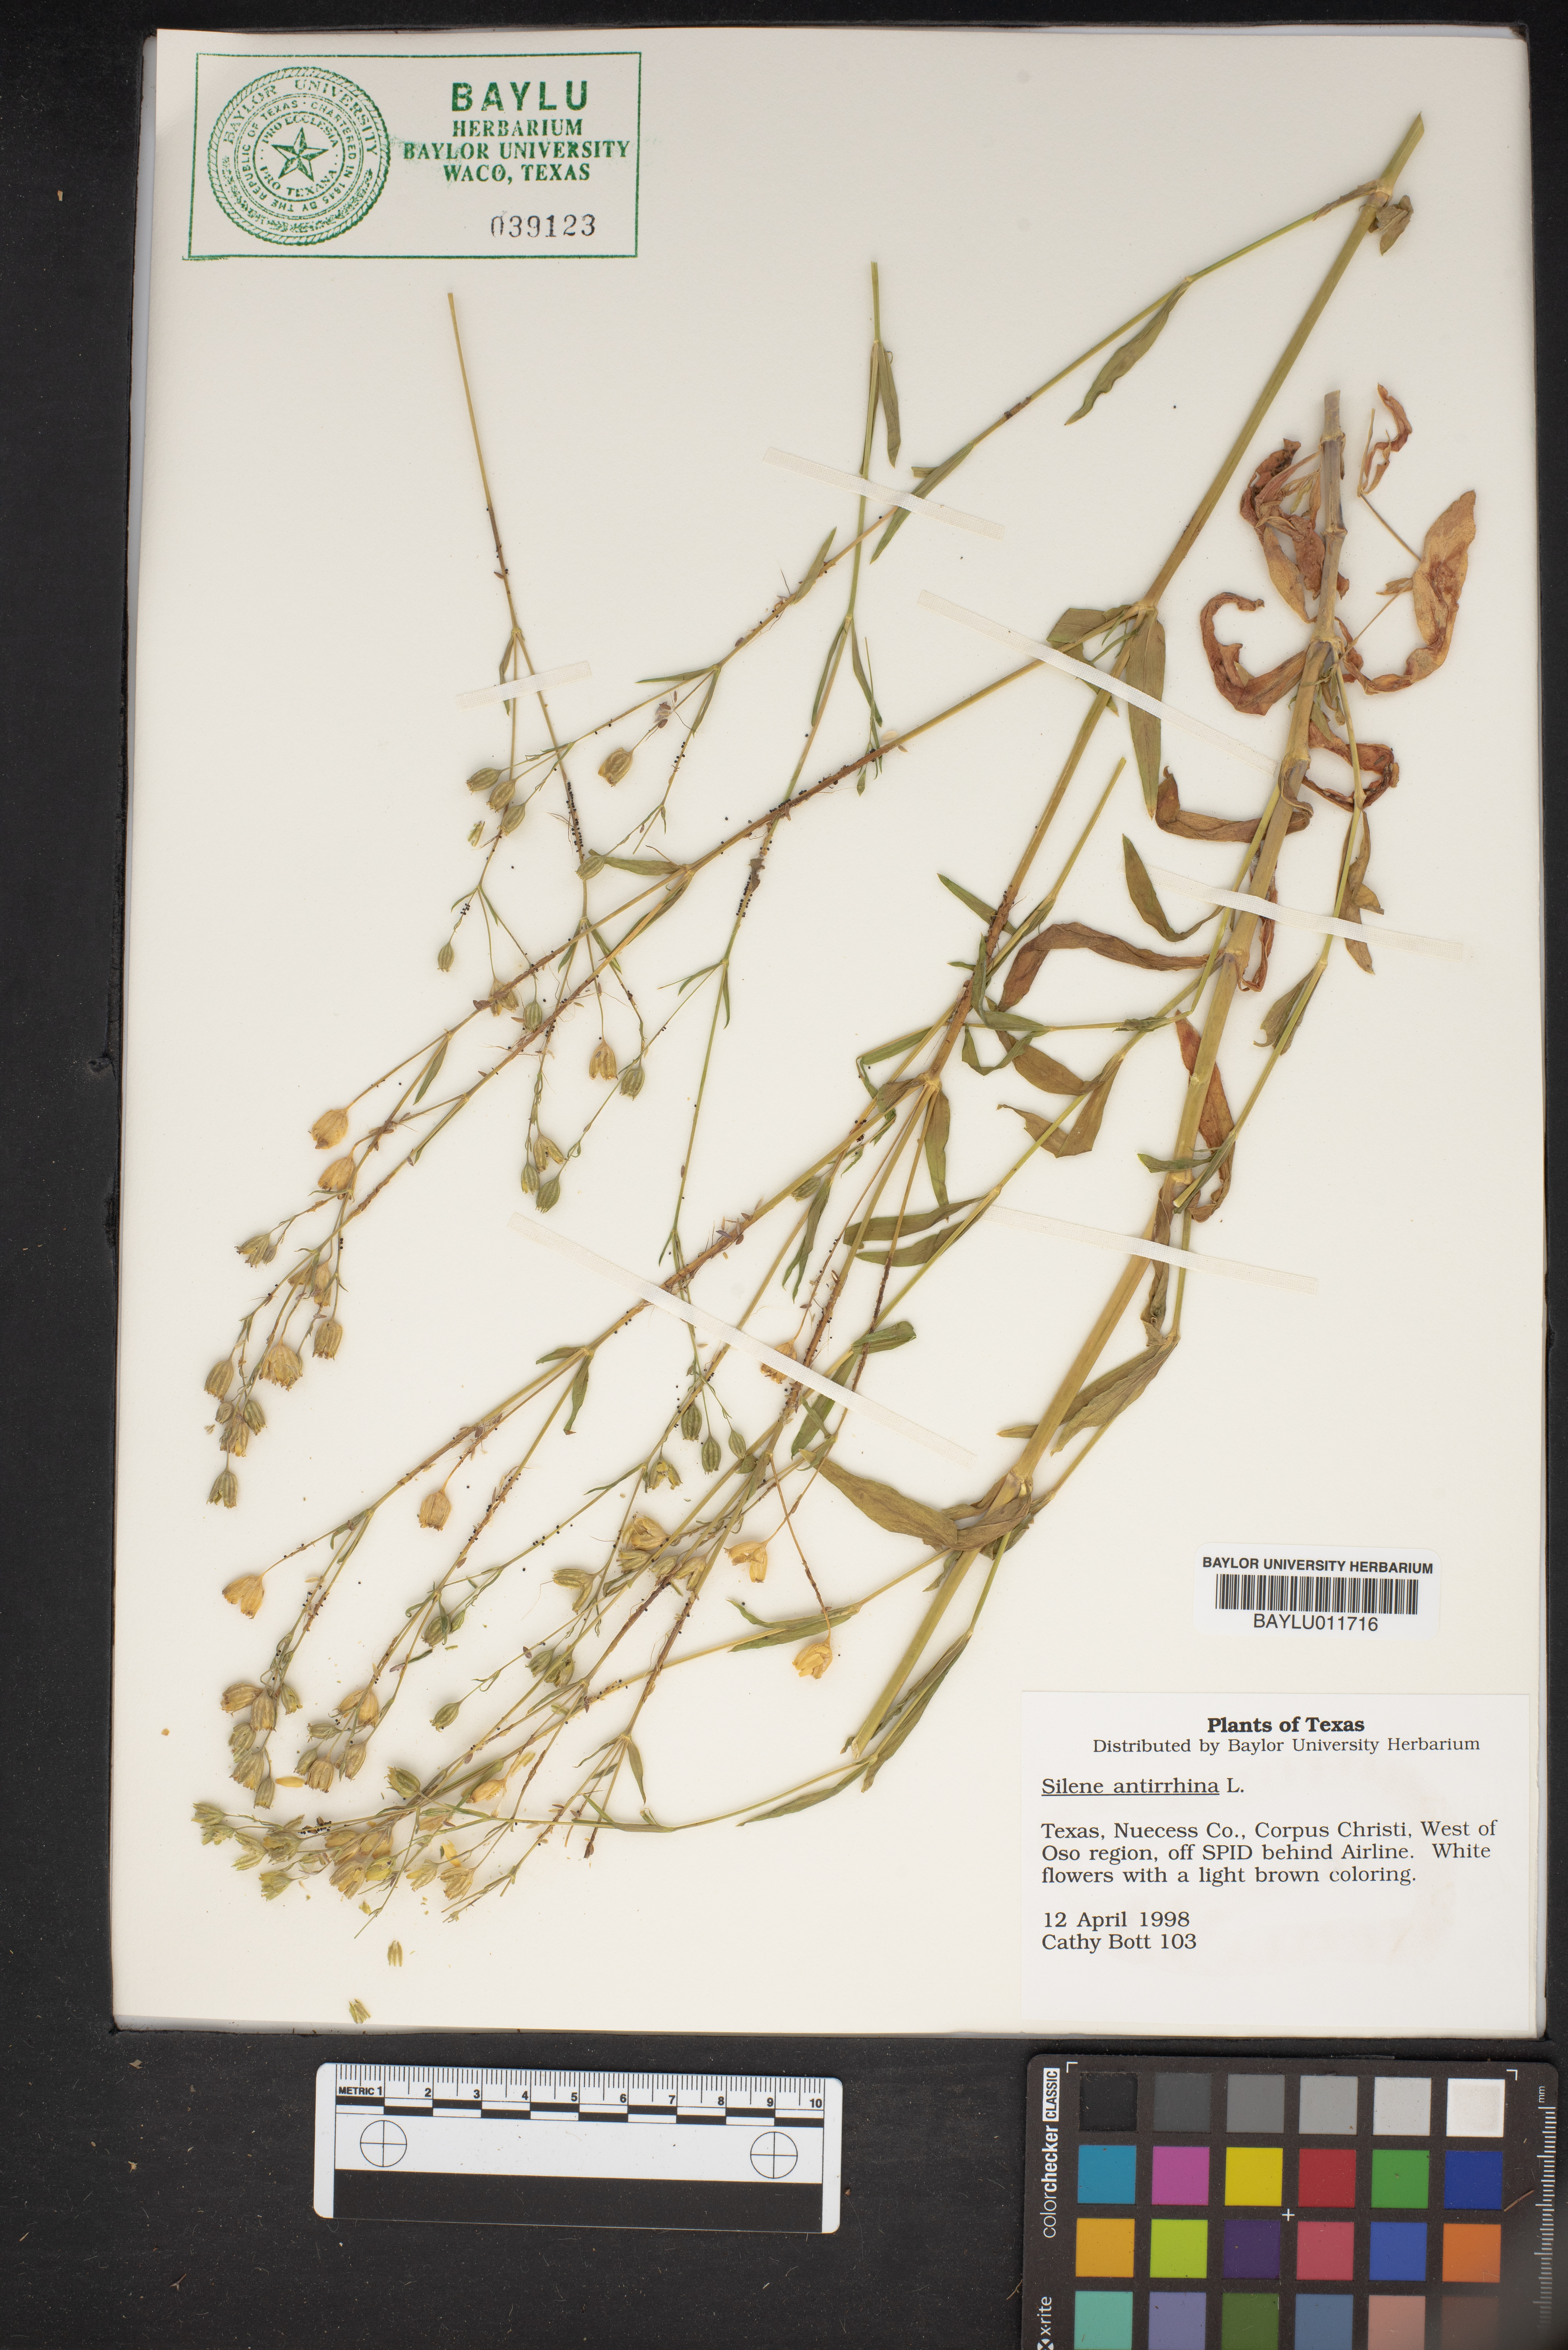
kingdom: Plantae
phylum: Tracheophyta
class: Magnoliopsida
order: Caryophyllales
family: Caryophyllaceae
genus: Silene
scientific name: Silene antirrhina
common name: Sleepy catchfly
